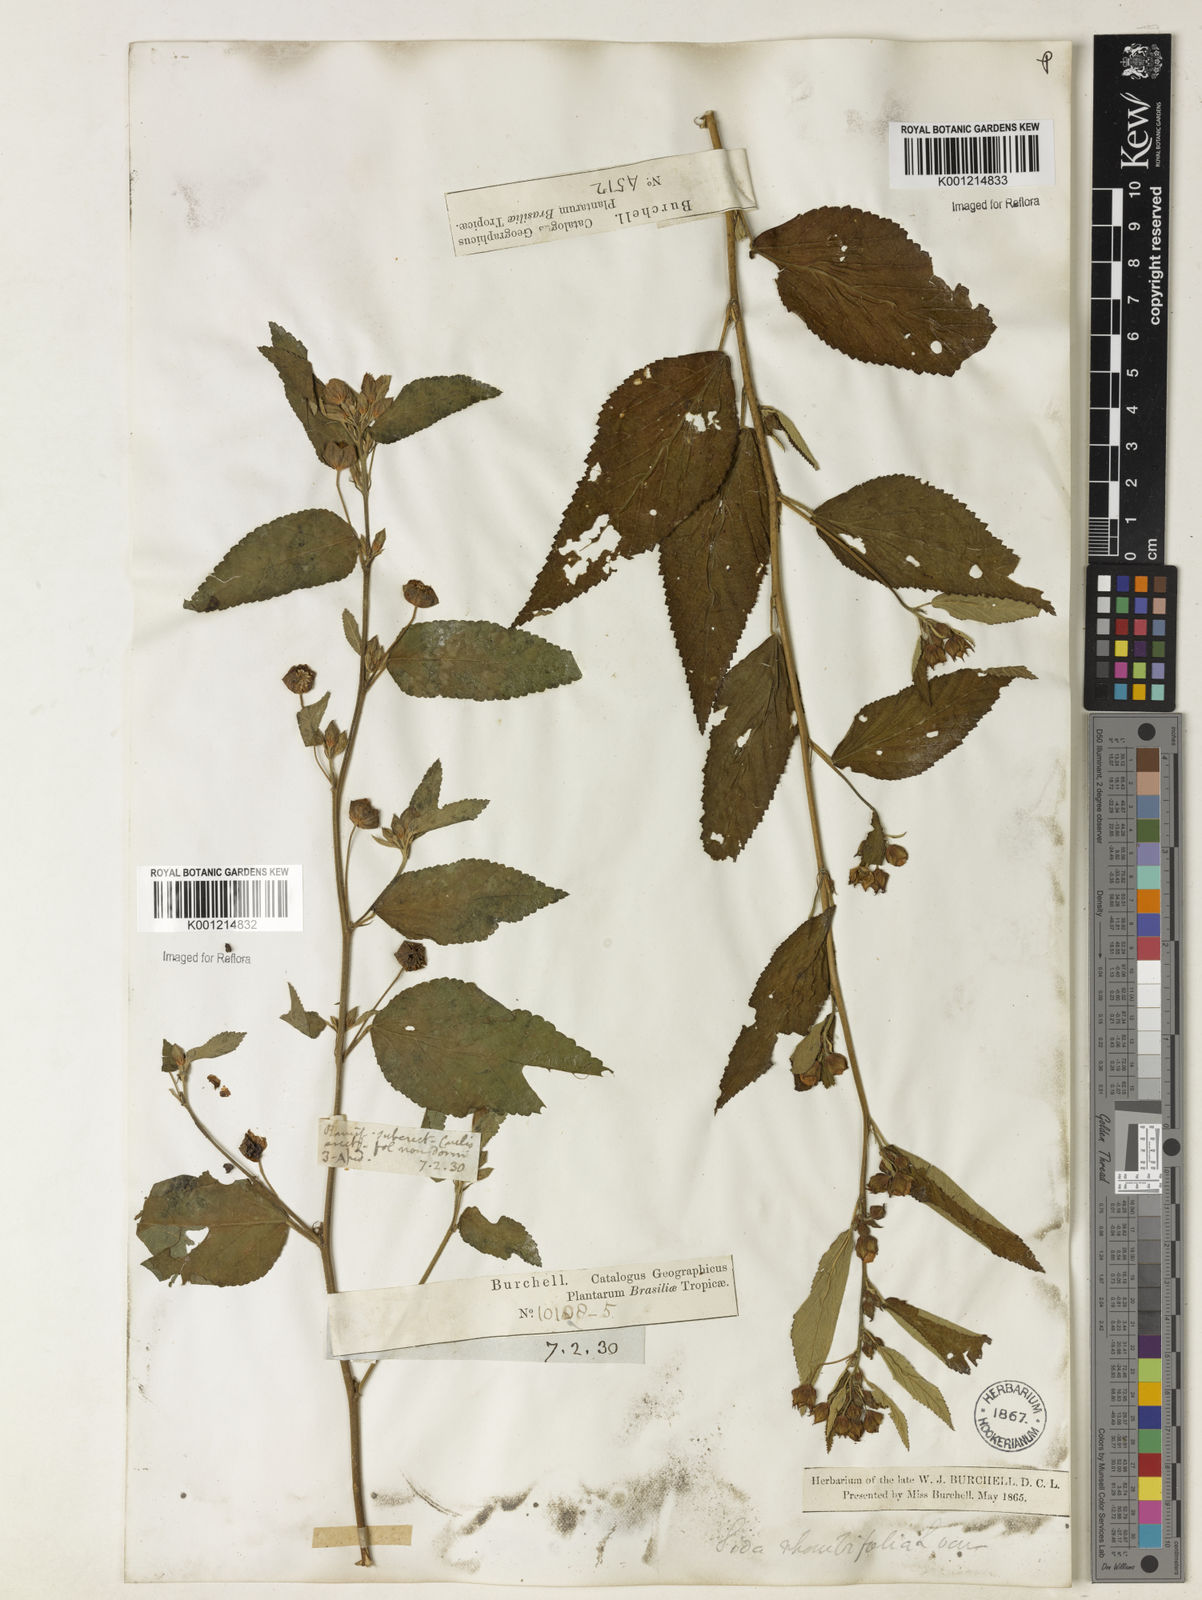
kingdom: Plantae
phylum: Tracheophyta
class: Magnoliopsida
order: Malvales
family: Malvaceae
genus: Sida
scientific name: Sida rhombifolia
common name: Queensland-hemp
